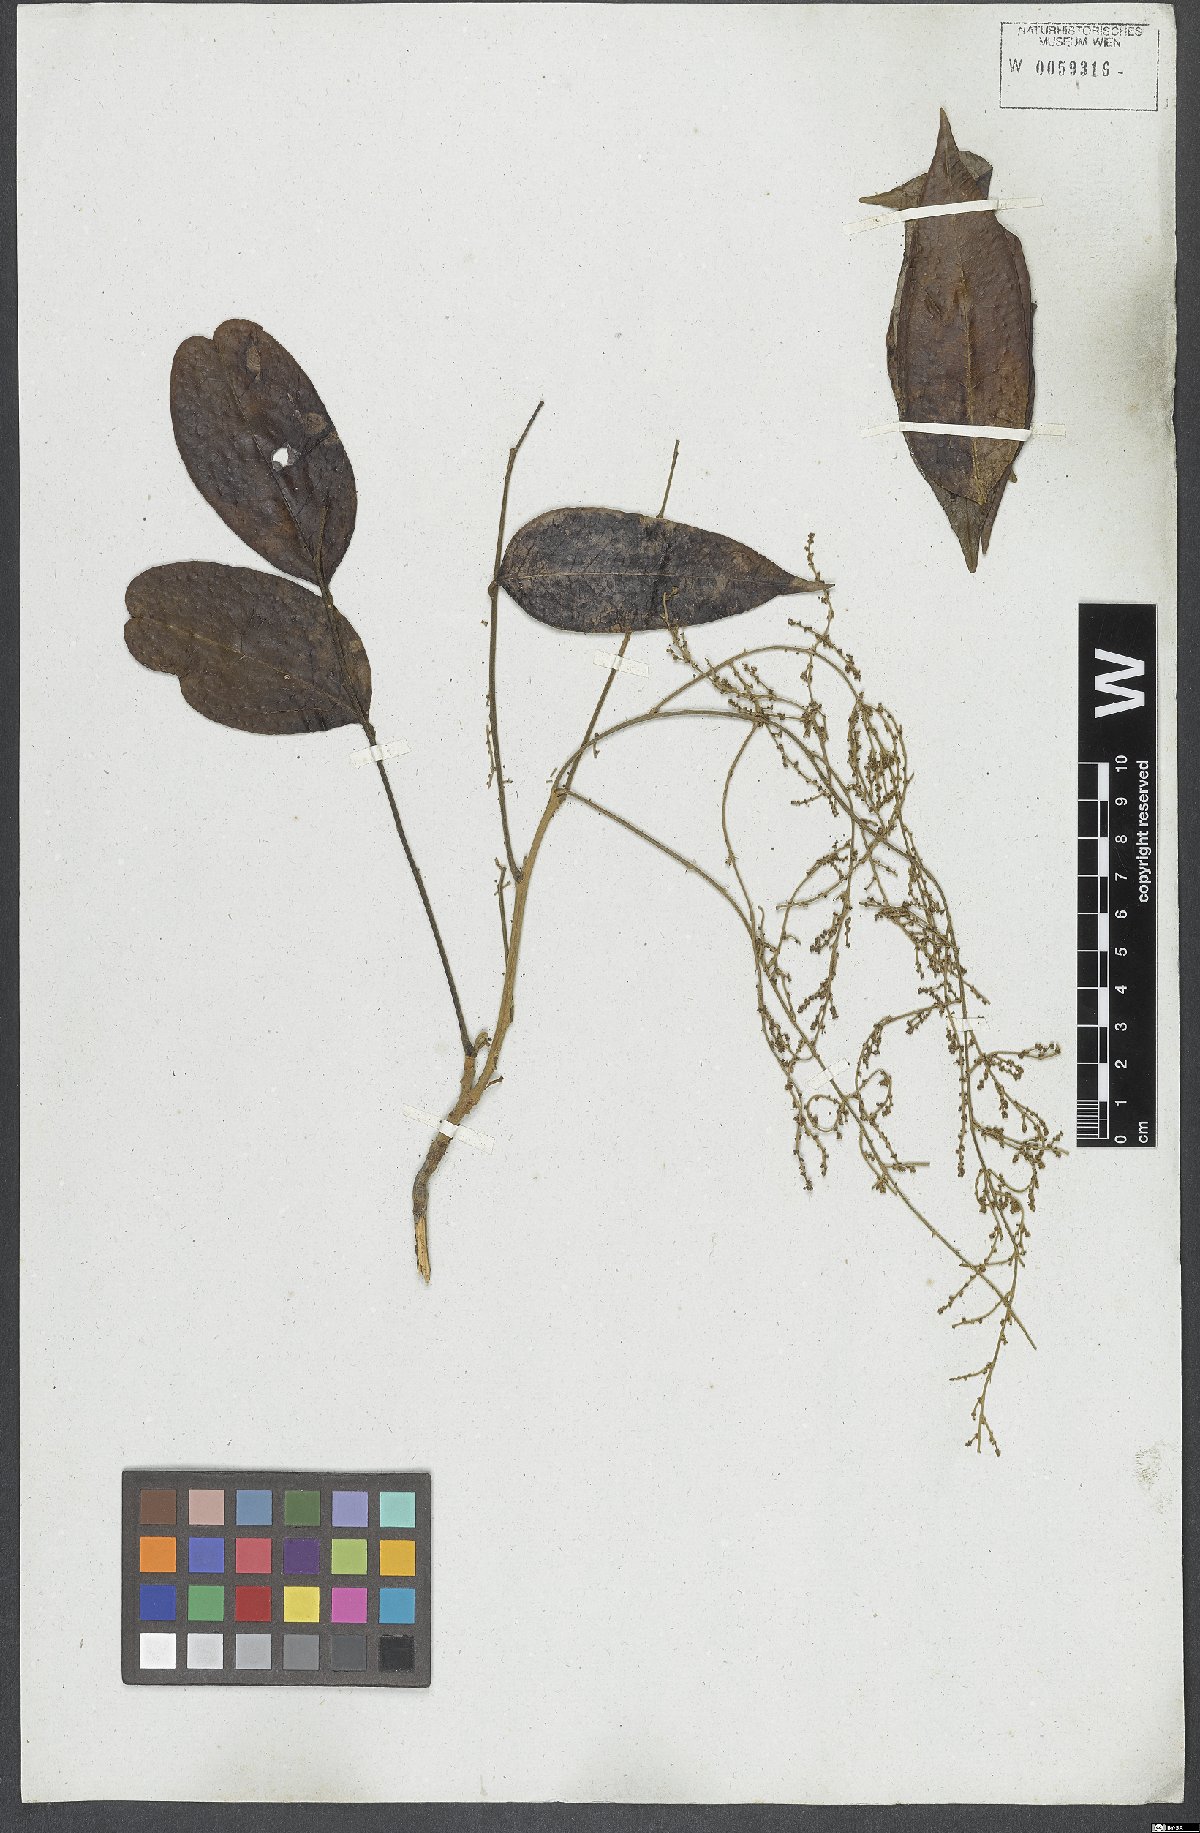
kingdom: Plantae
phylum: Tracheophyta
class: Magnoliopsida
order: Picramniales
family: Picramniaceae
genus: Picramnia
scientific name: Picramnia ciliata
